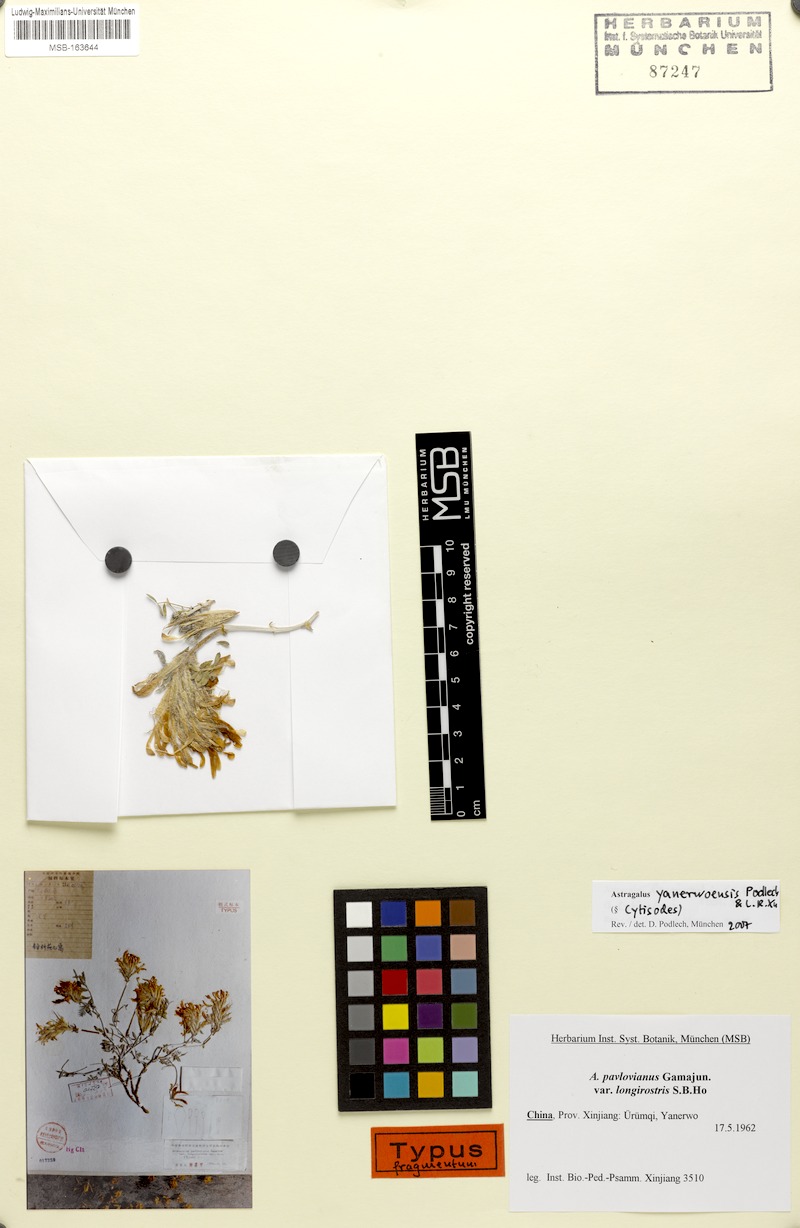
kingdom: Plantae
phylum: Tracheophyta
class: Magnoliopsida
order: Fabales
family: Fabaceae
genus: Astragalus
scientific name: Astragalus yanerwoensis
